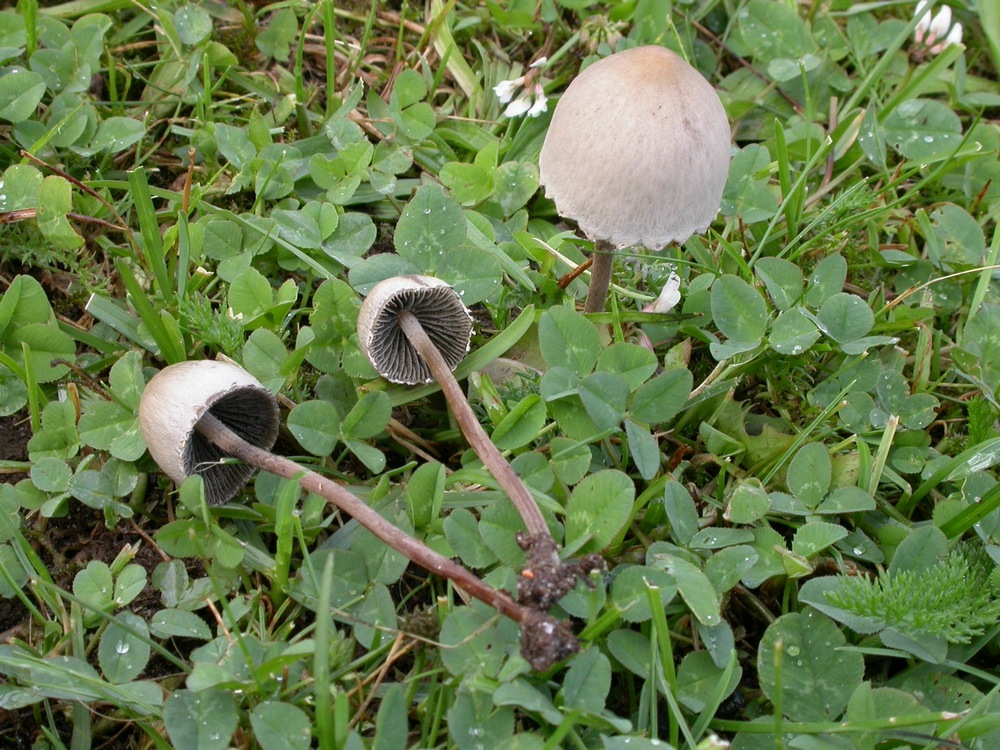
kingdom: Fungi
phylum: Basidiomycota
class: Agaricomycetes
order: Agaricales
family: Bolbitiaceae
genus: Panaeolus
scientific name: Panaeolus papilionaceus
